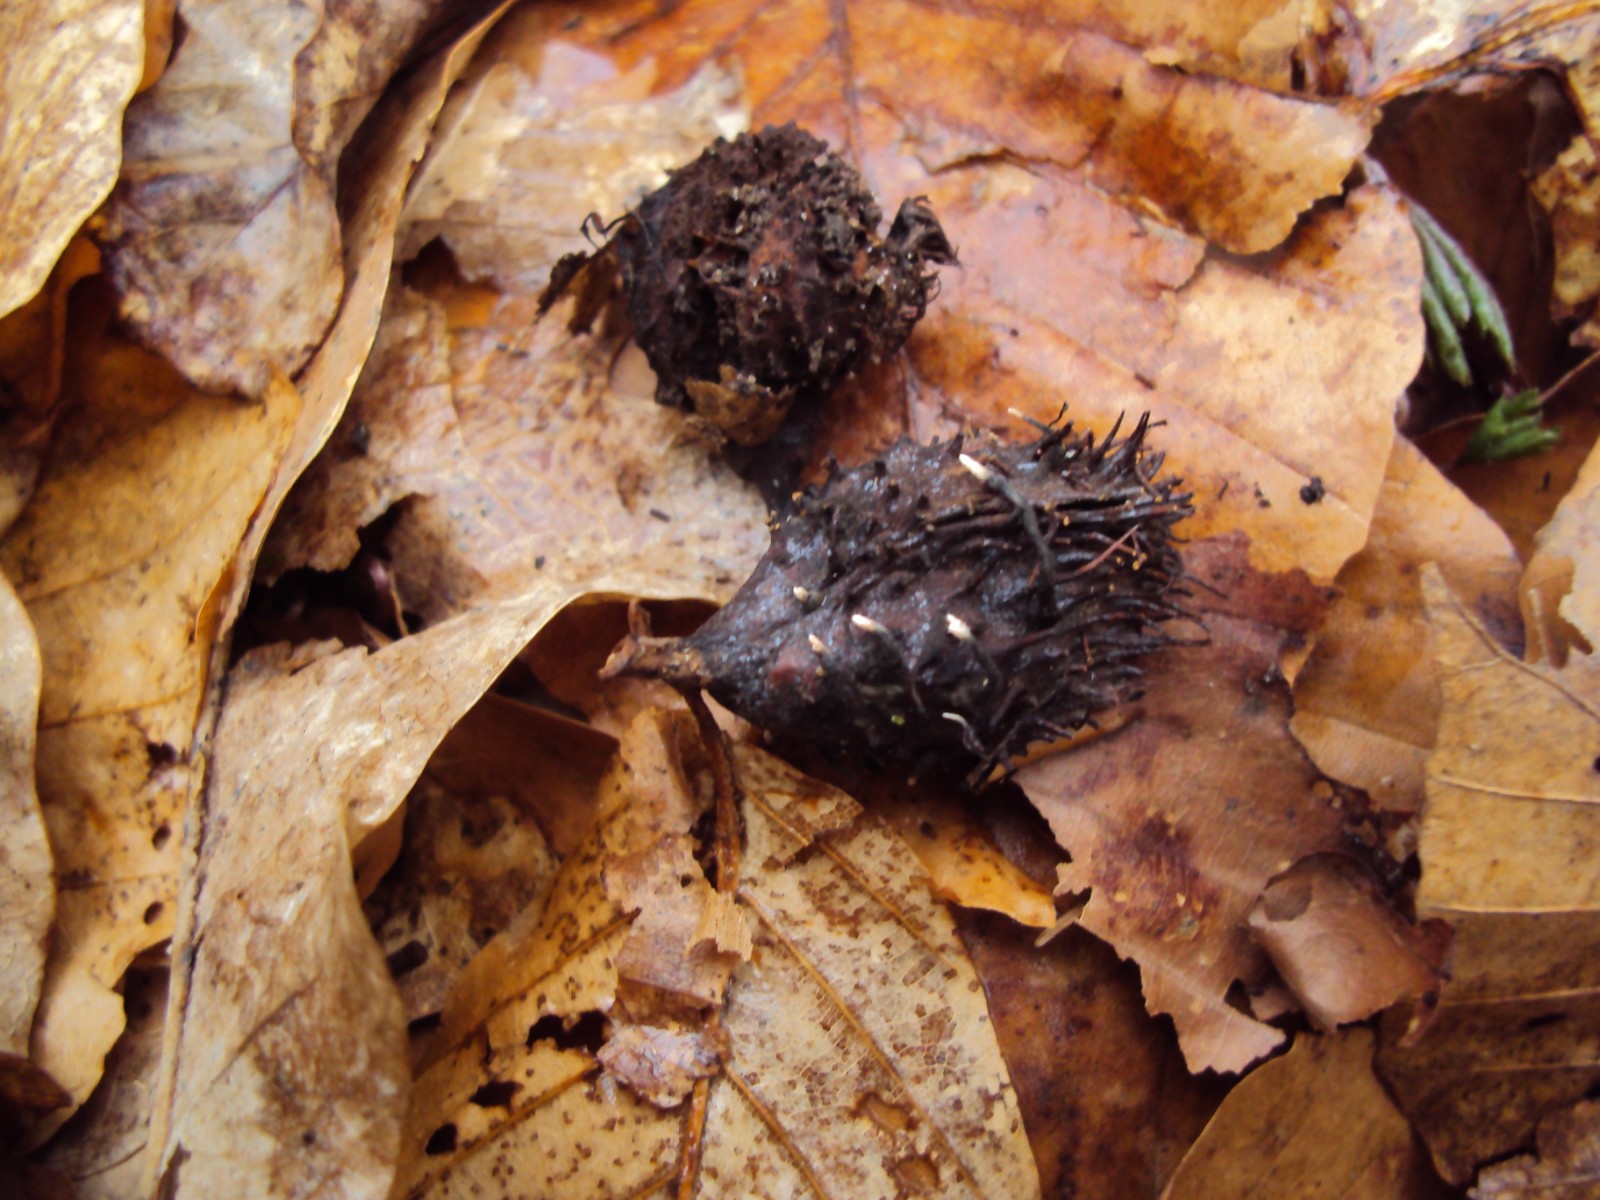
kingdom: Fungi
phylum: Ascomycota
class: Sordariomycetes
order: Xylariales
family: Xylariaceae
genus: Xylaria
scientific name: Xylaria carpophila
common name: bogskål-stødsvamp
